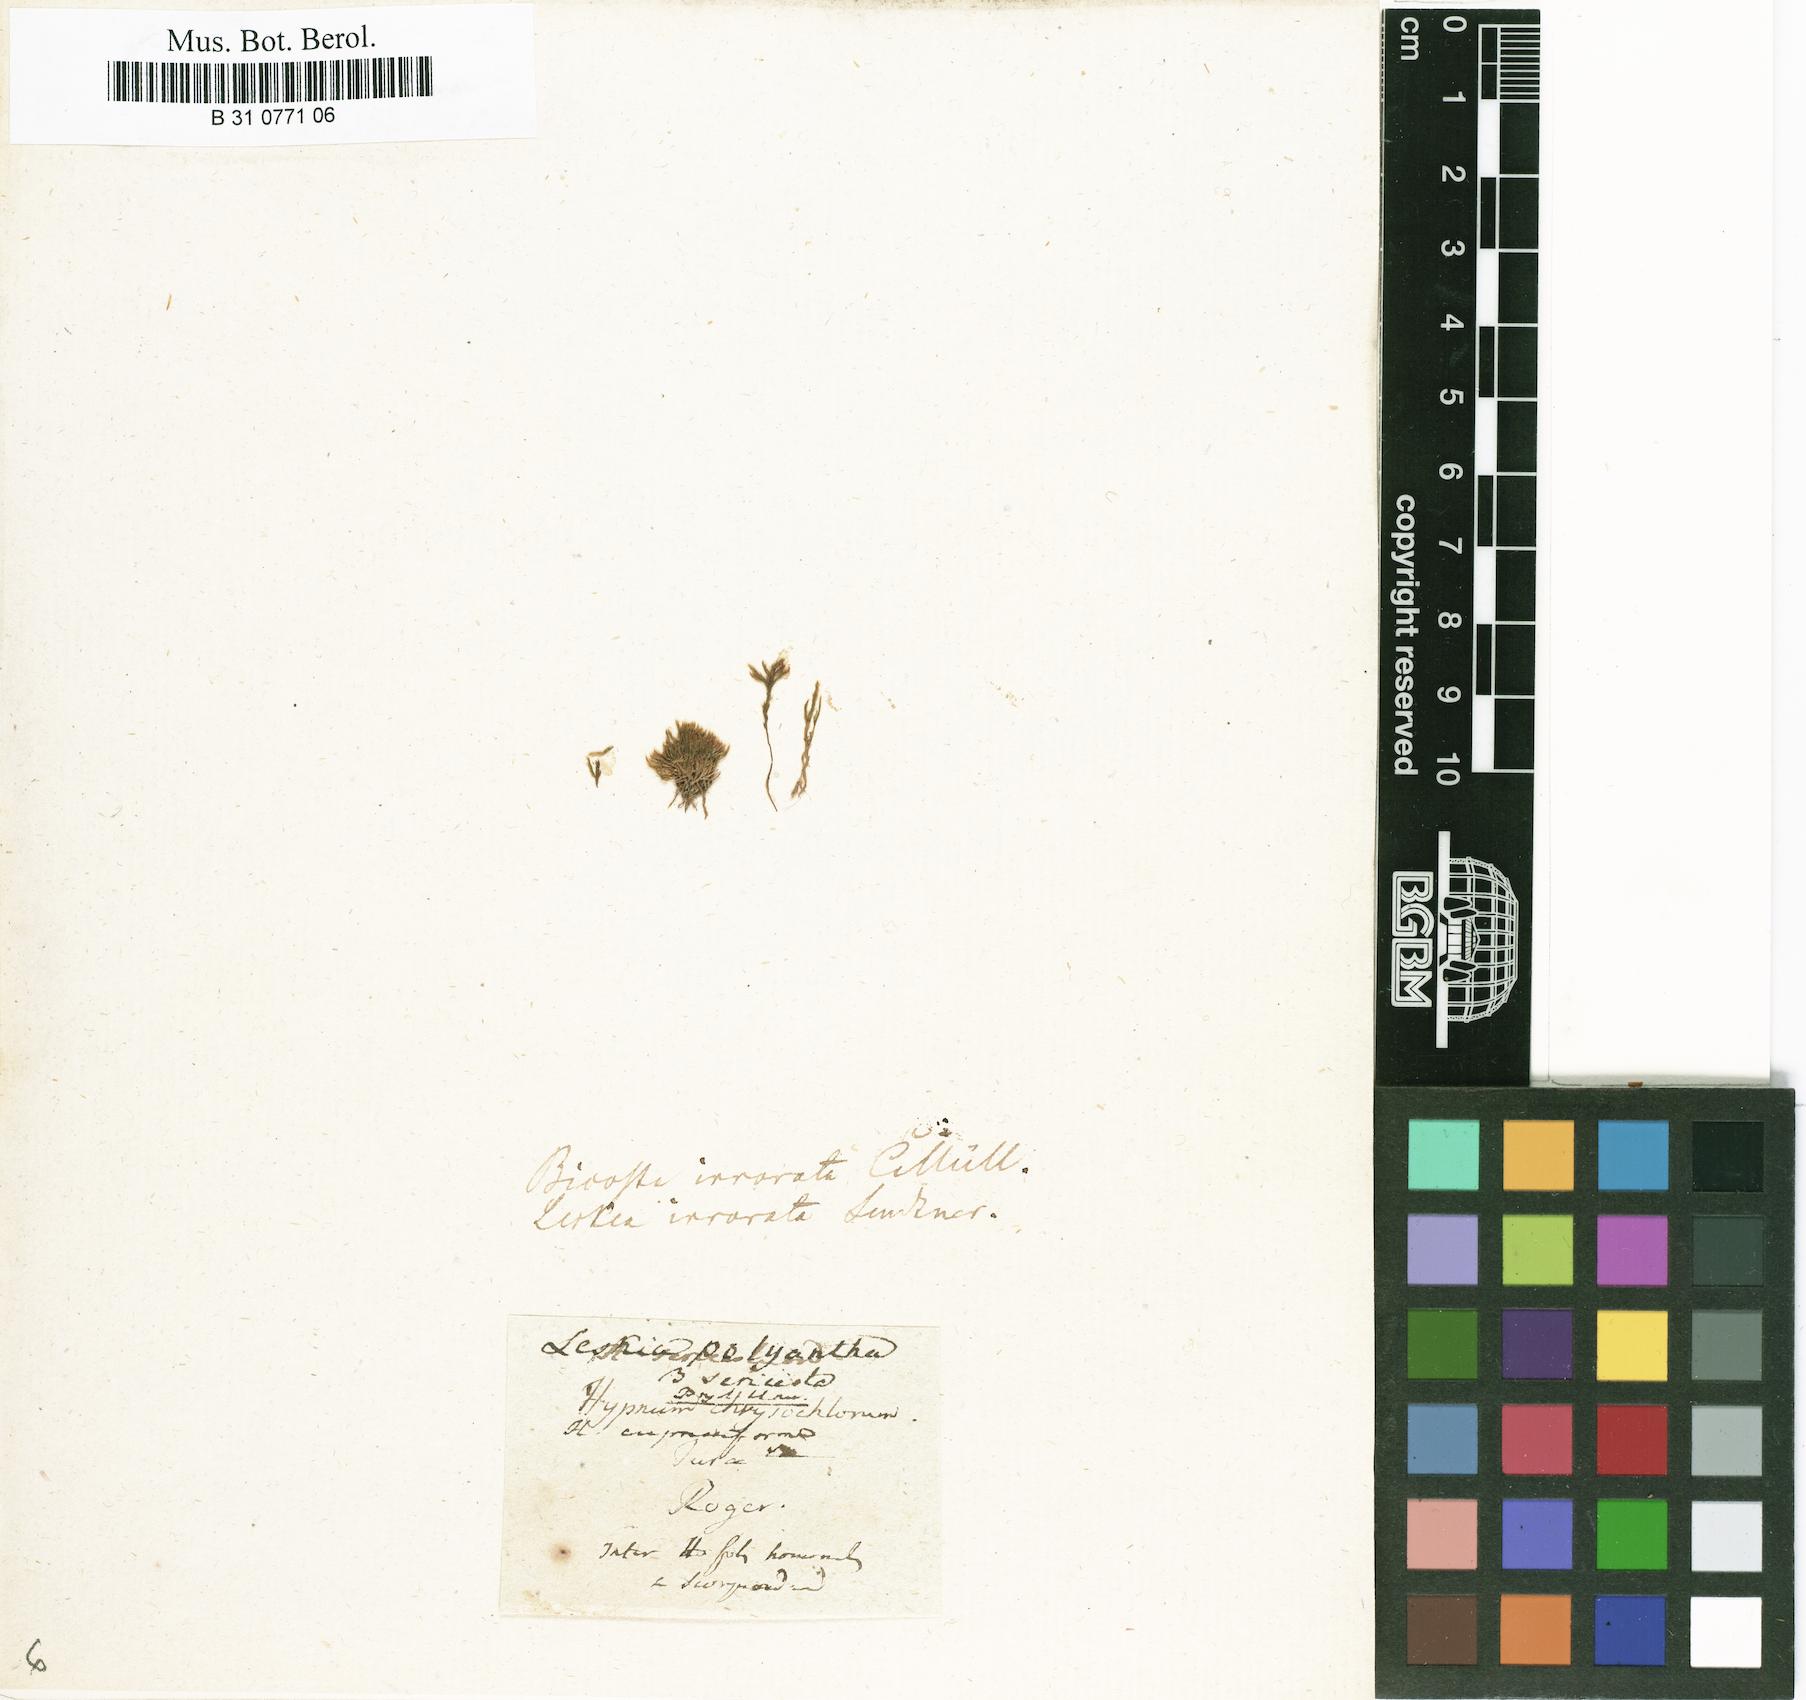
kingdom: Plantae
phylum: Bryophyta
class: Bryopsida
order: Hypnales
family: Pylaisiaceae
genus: Pylaisia
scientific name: Pylaisia polyantha
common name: Many-flowered leskea
